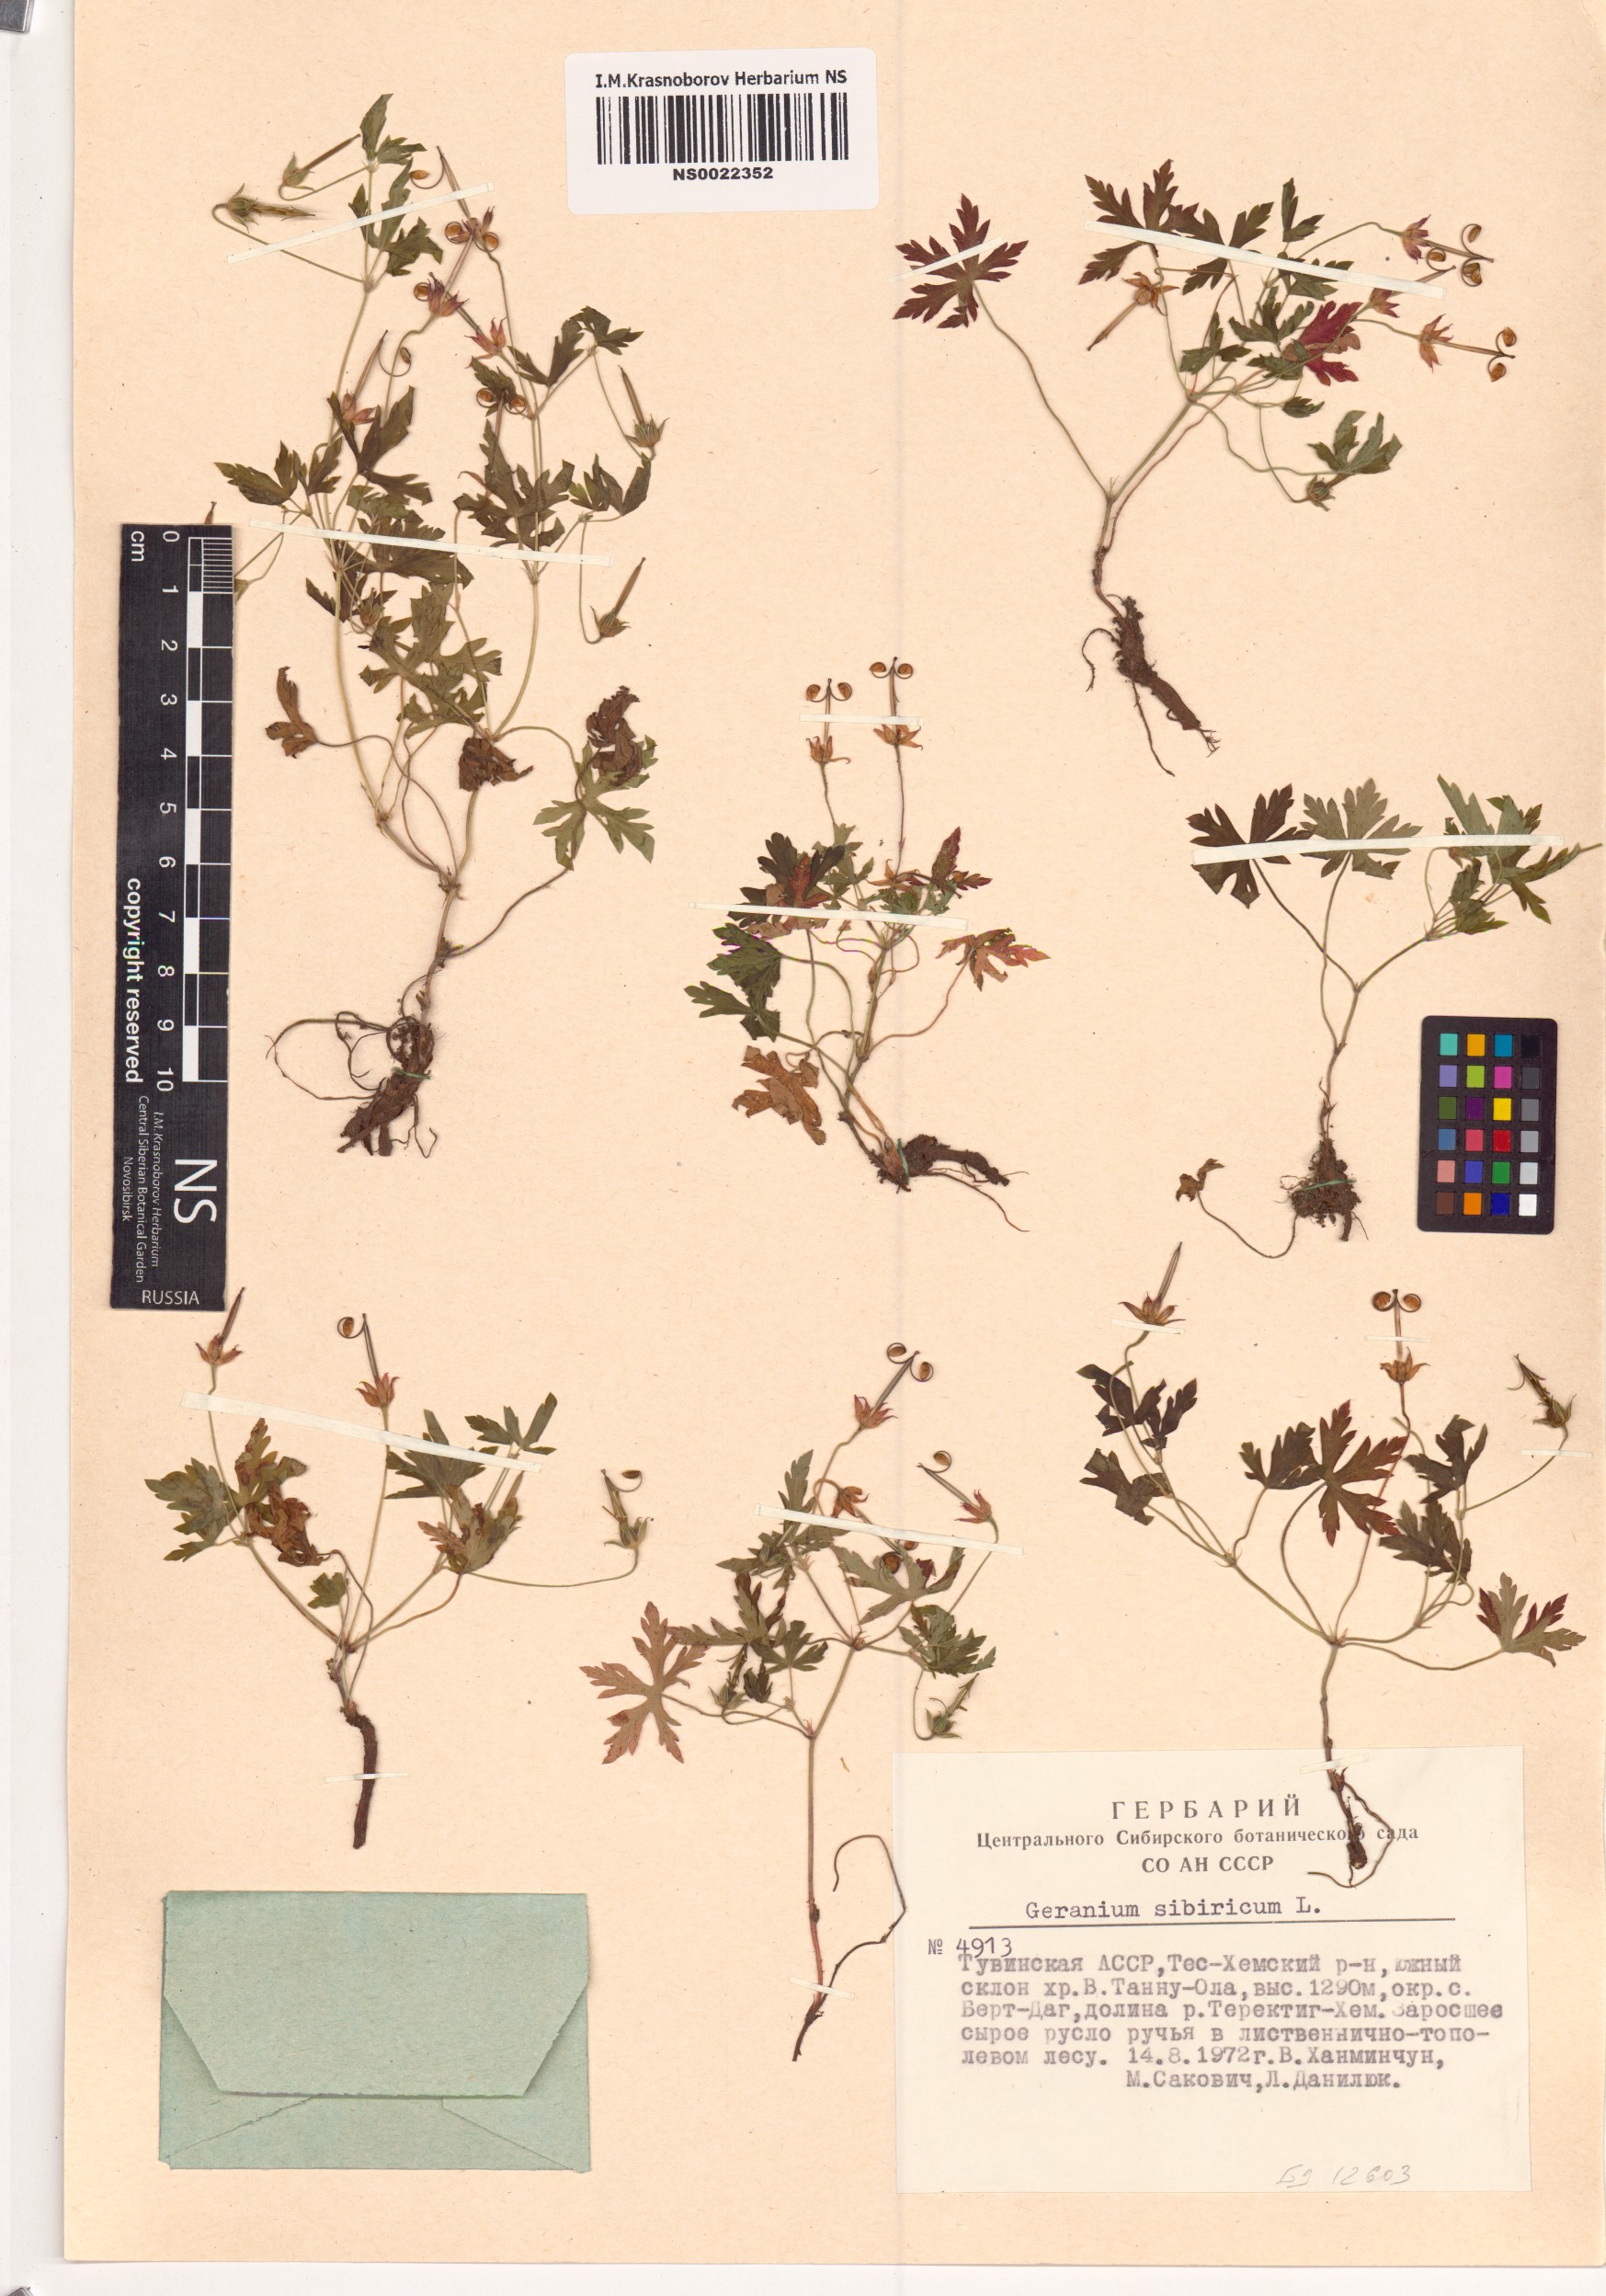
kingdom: Plantae
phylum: Tracheophyta
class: Magnoliopsida
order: Geraniales
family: Geraniaceae
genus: Geranium
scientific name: Geranium sibiricum
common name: Siberian crane's-bill
